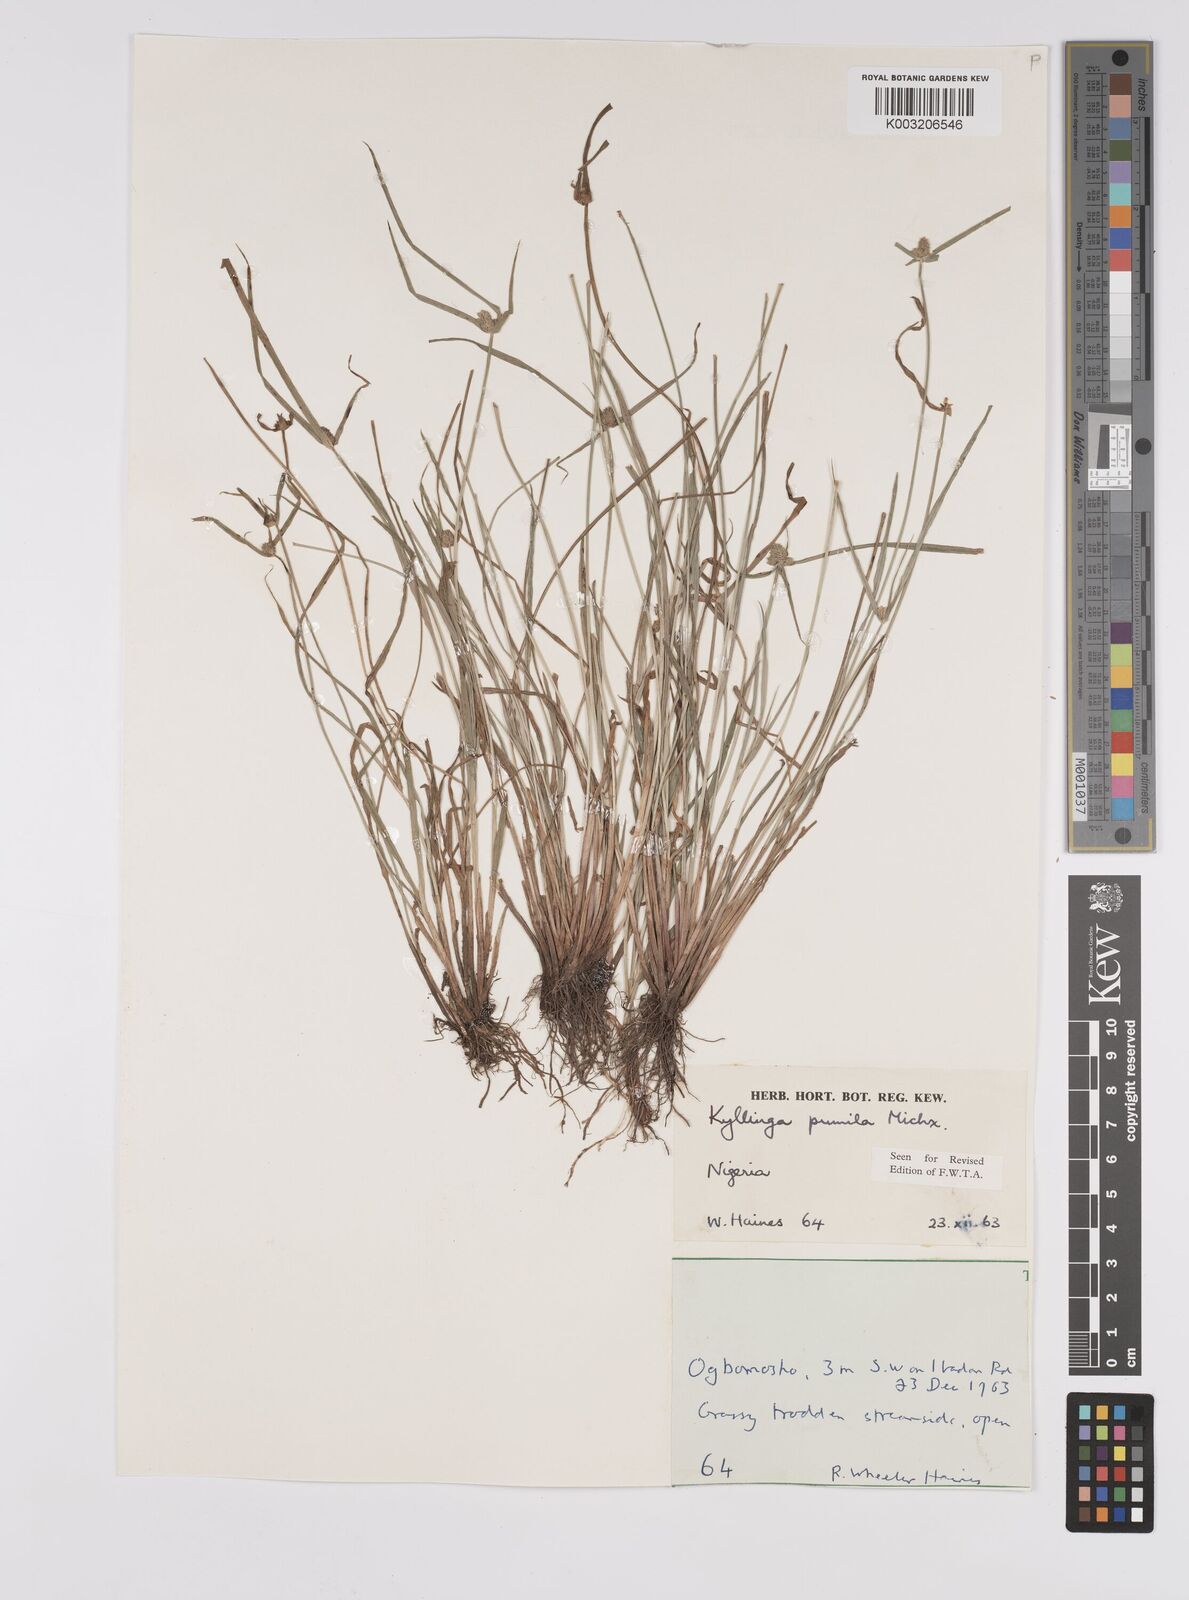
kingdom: Plantae
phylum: Tracheophyta
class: Liliopsida
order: Poales
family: Cyperaceae
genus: Cyperus
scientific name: Cyperus
